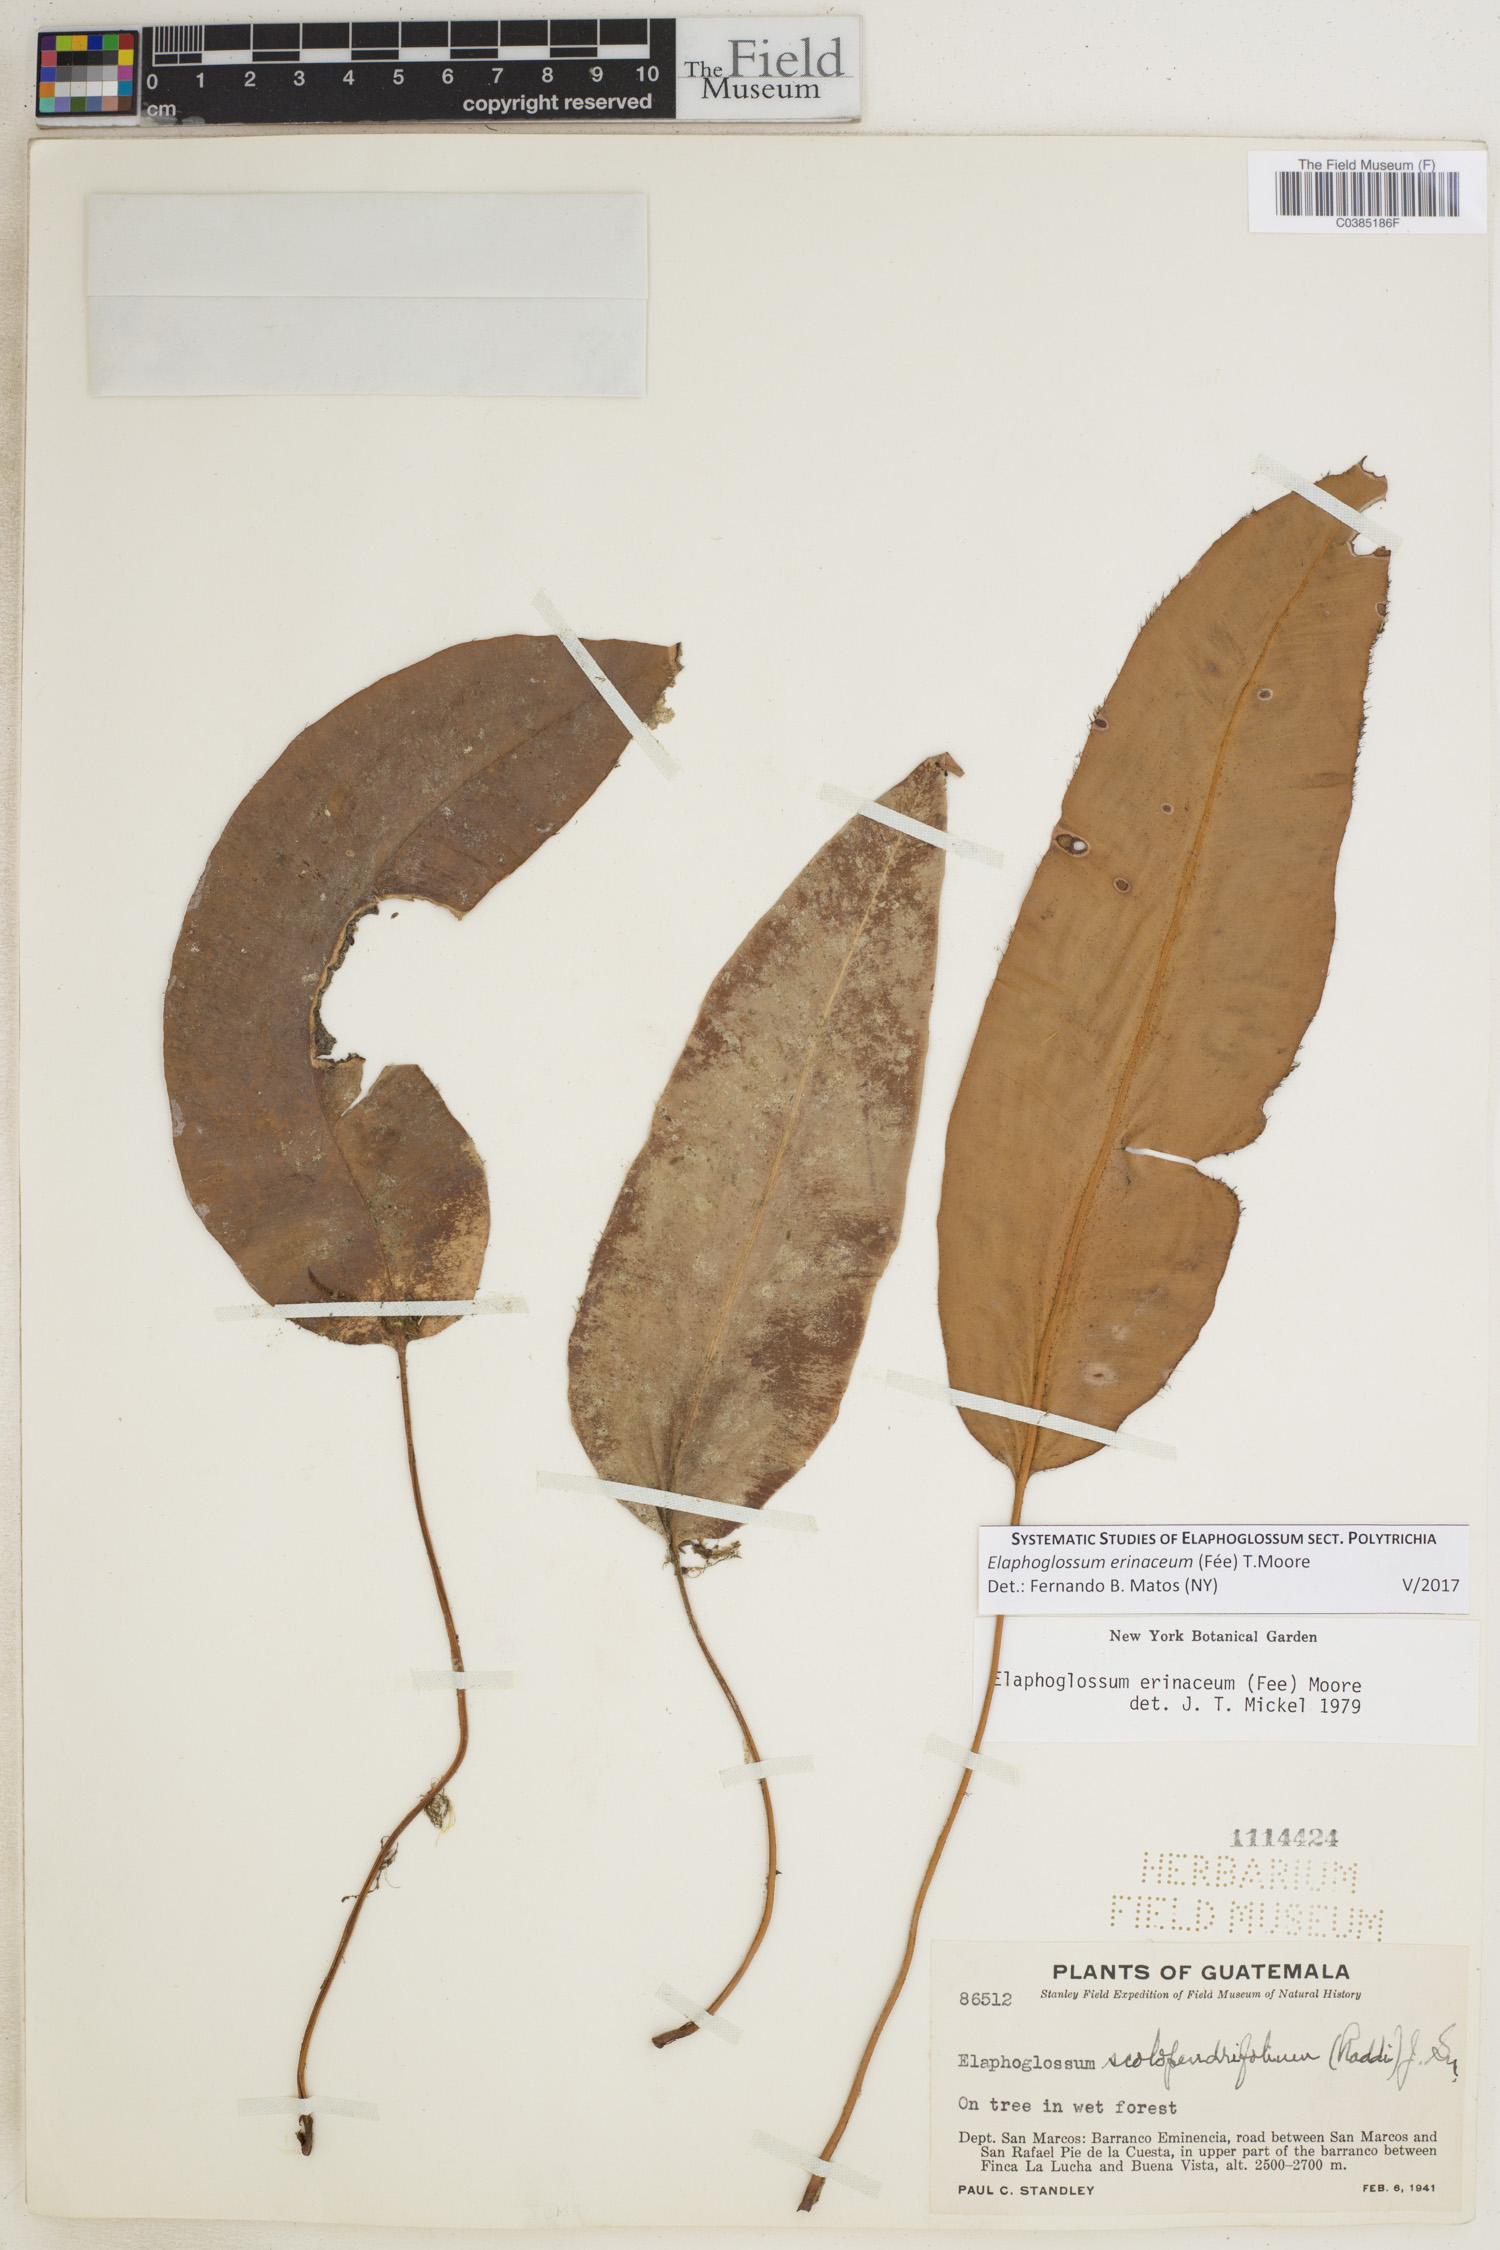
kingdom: Plantae
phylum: Tracheophyta
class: Polypodiopsida
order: Polypodiales
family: Dryopteridaceae
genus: Elaphoglossum
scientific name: Elaphoglossum erinaceum
